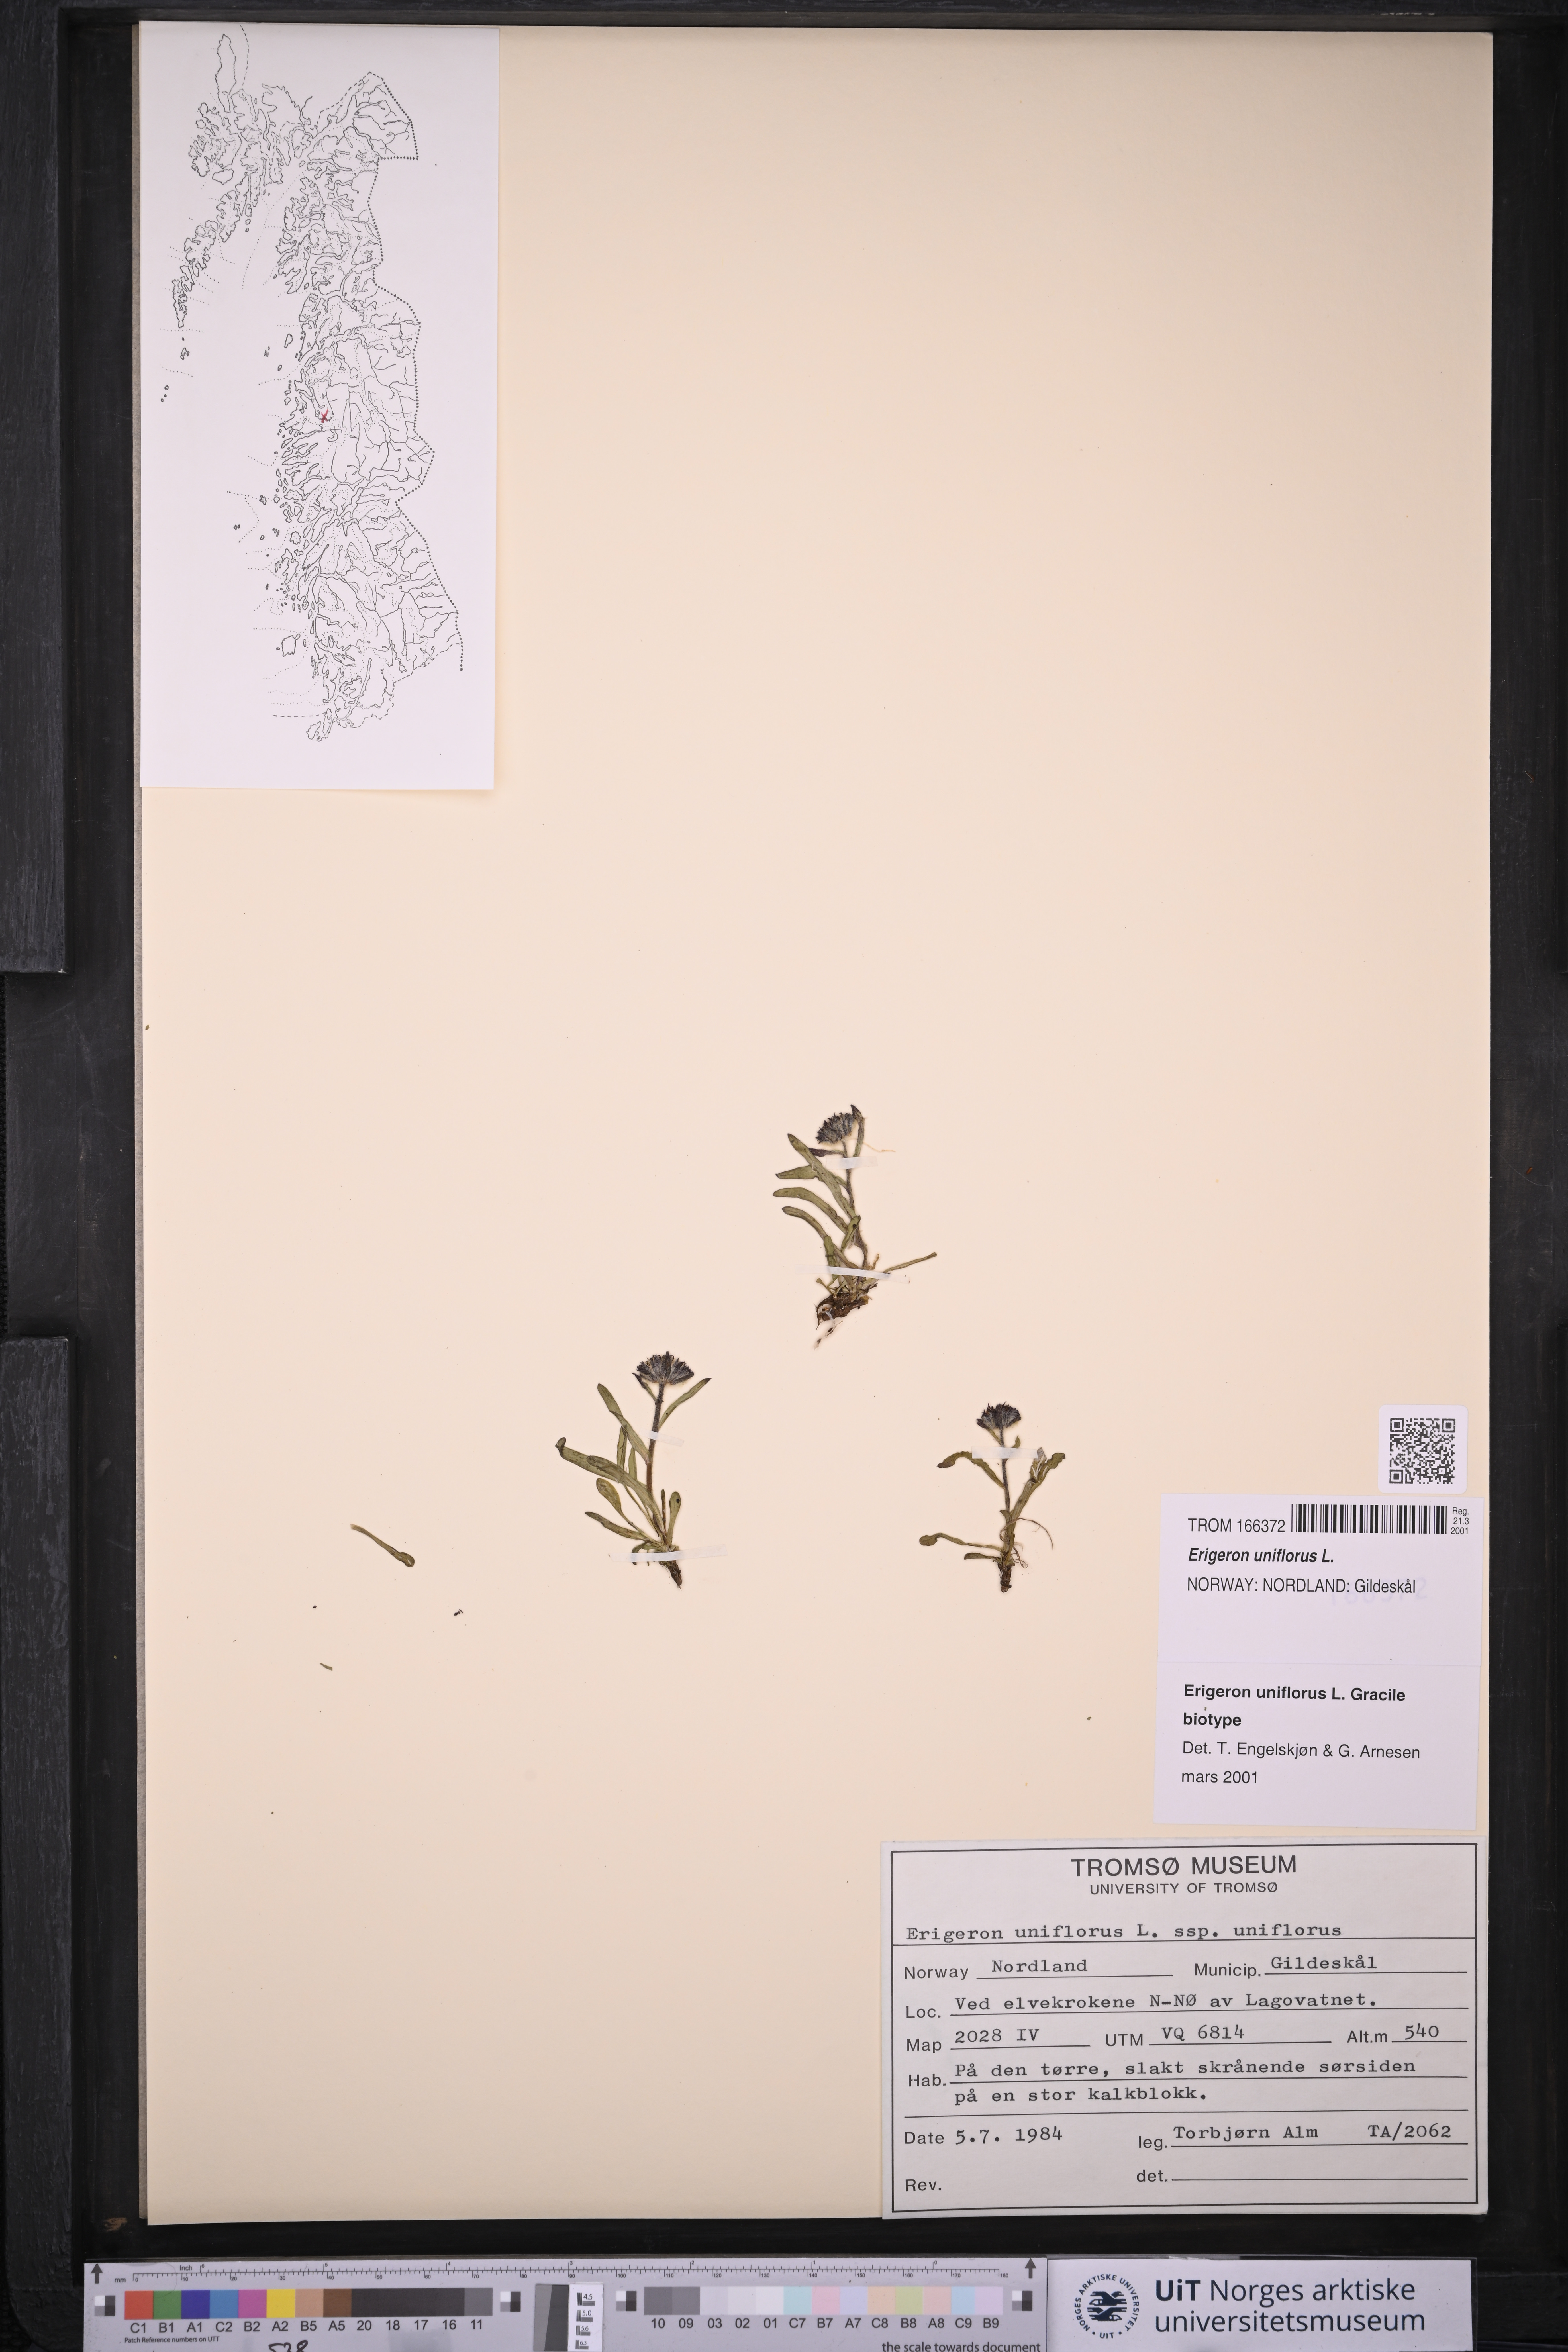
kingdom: Plantae
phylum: Tracheophyta
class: Magnoliopsida
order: Asterales
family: Asteraceae
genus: Erigeron
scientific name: Erigeron uniflorus
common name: Northern daisy
